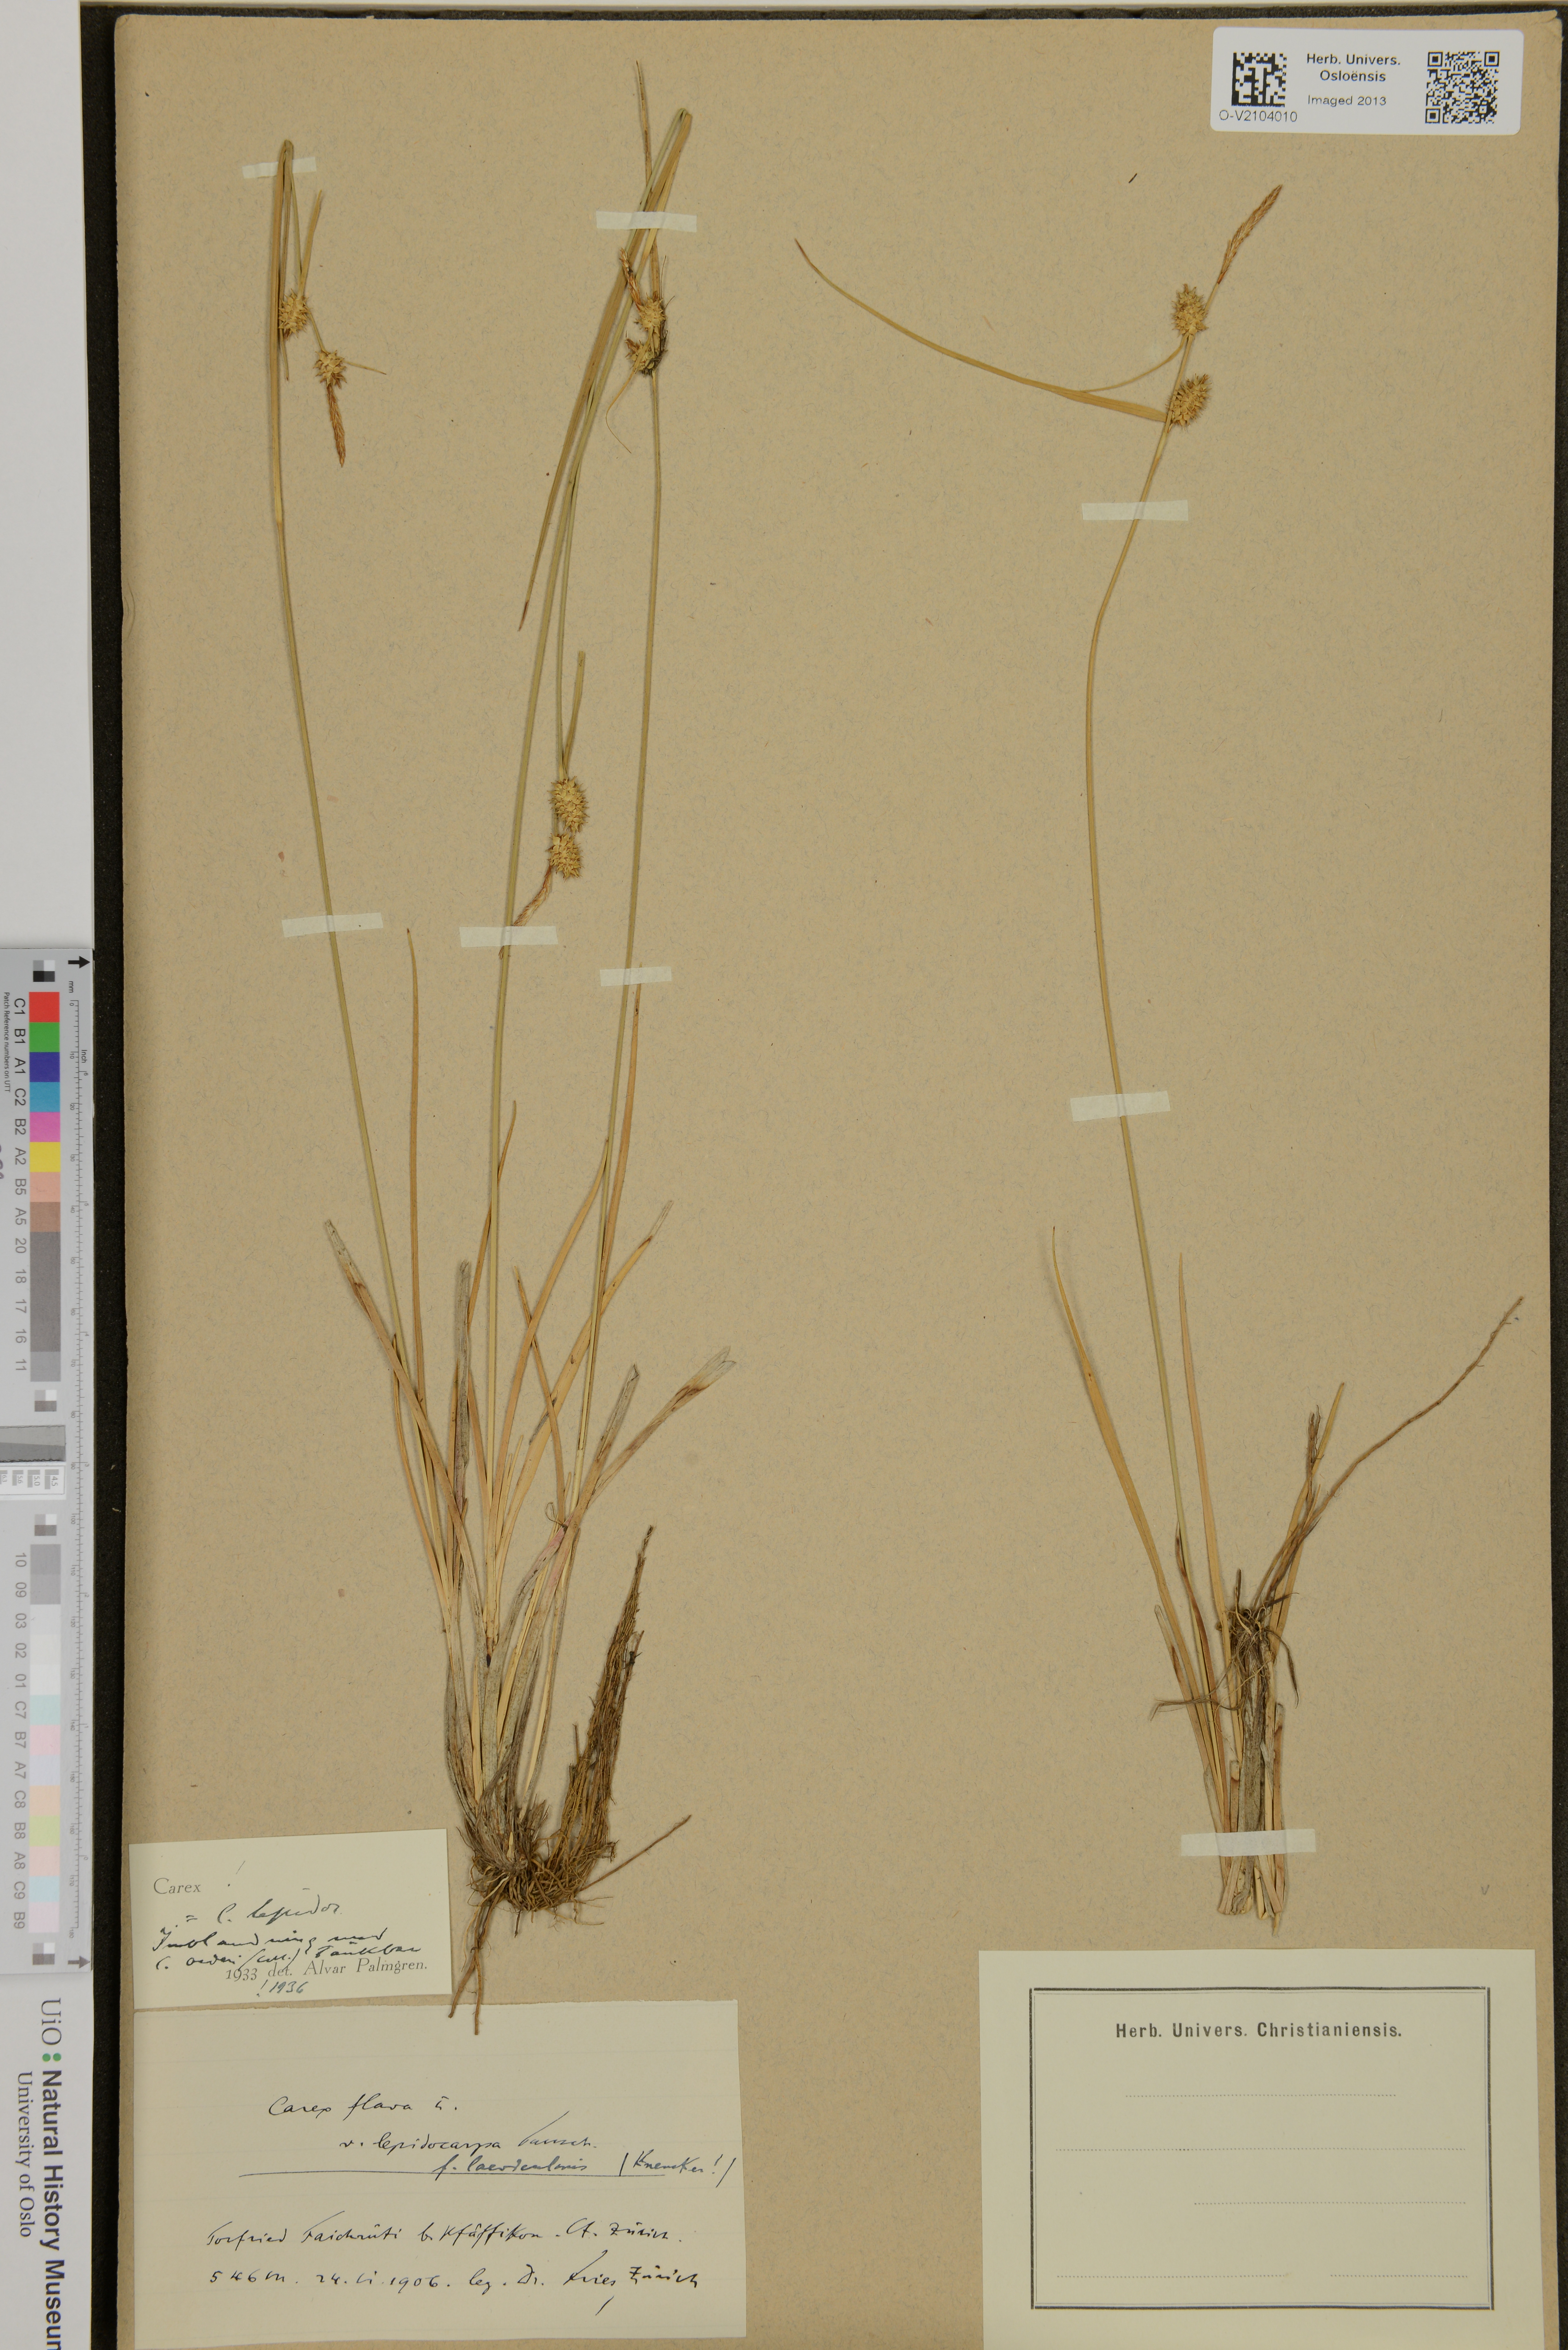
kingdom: Plantae
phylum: Tracheophyta
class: Liliopsida
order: Poales
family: Cyperaceae
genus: Carex
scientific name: Carex lepidocarpa
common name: Long-stalked yellow-sedge
